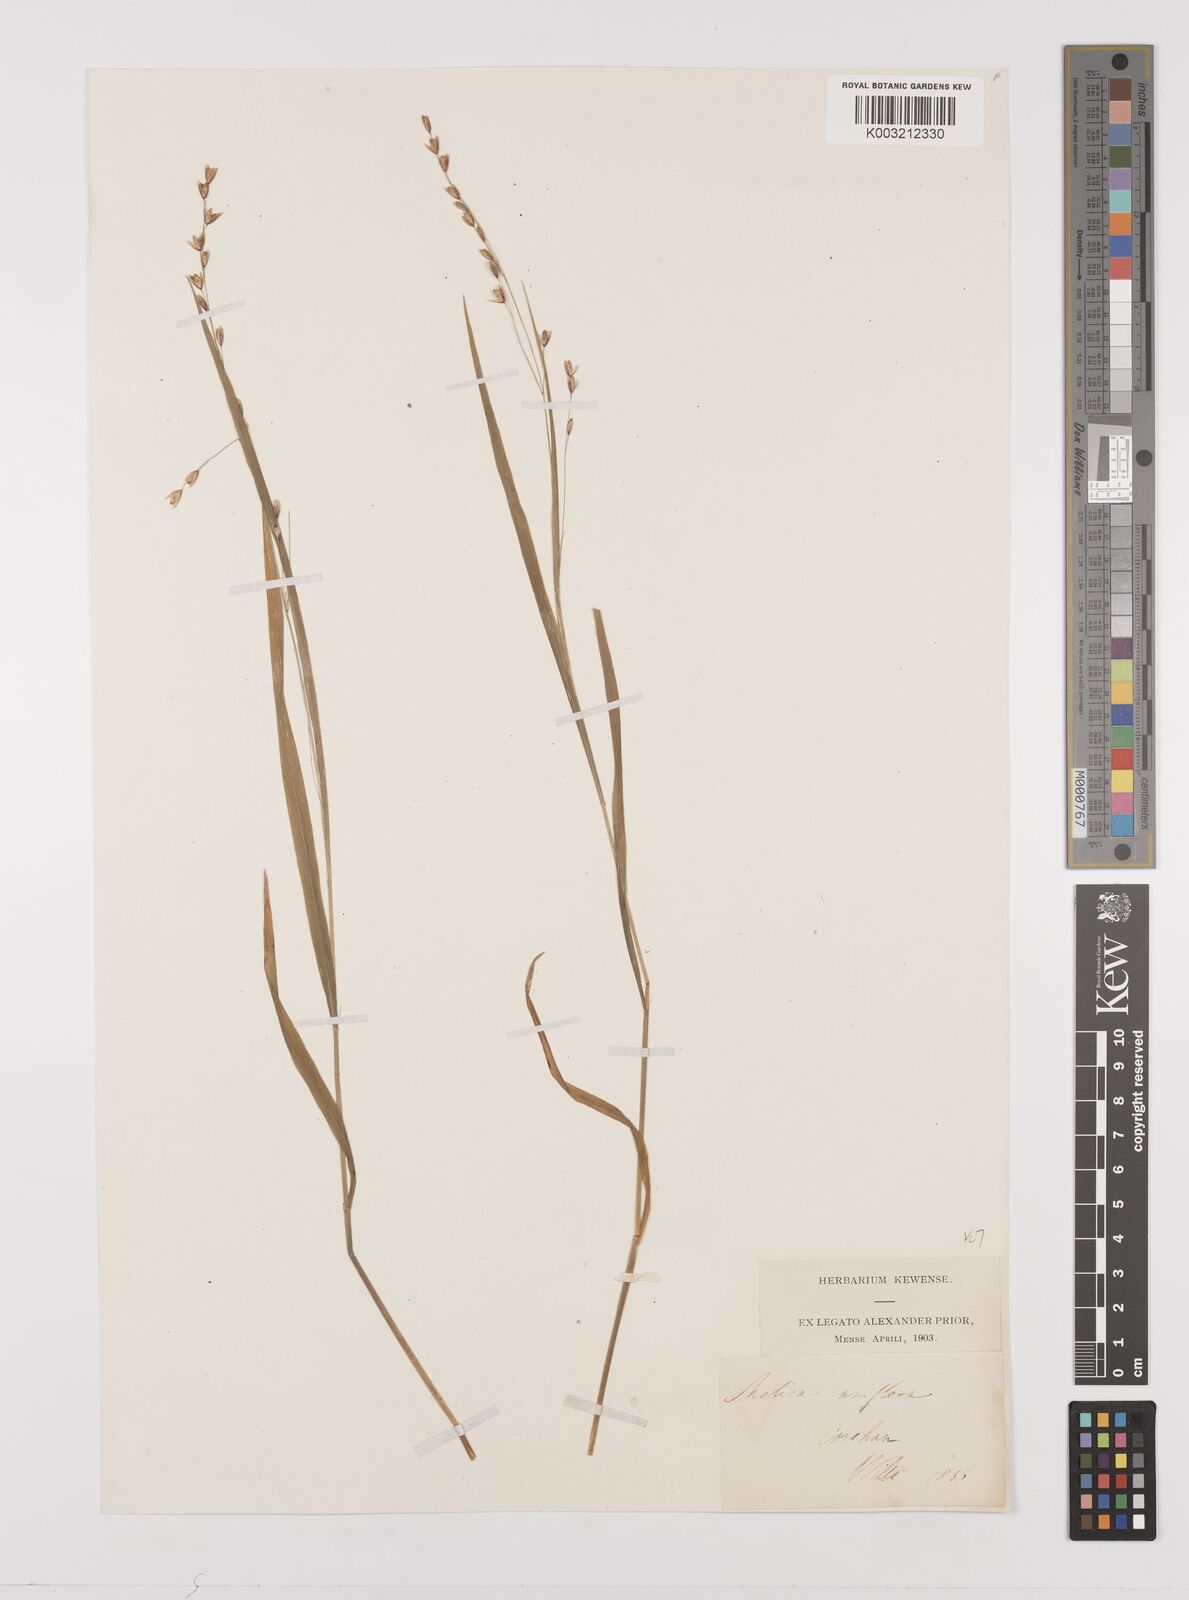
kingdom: Plantae
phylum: Tracheophyta
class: Liliopsida
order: Poales
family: Poaceae
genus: Melica
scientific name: Melica uniflora
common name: Wood melick
